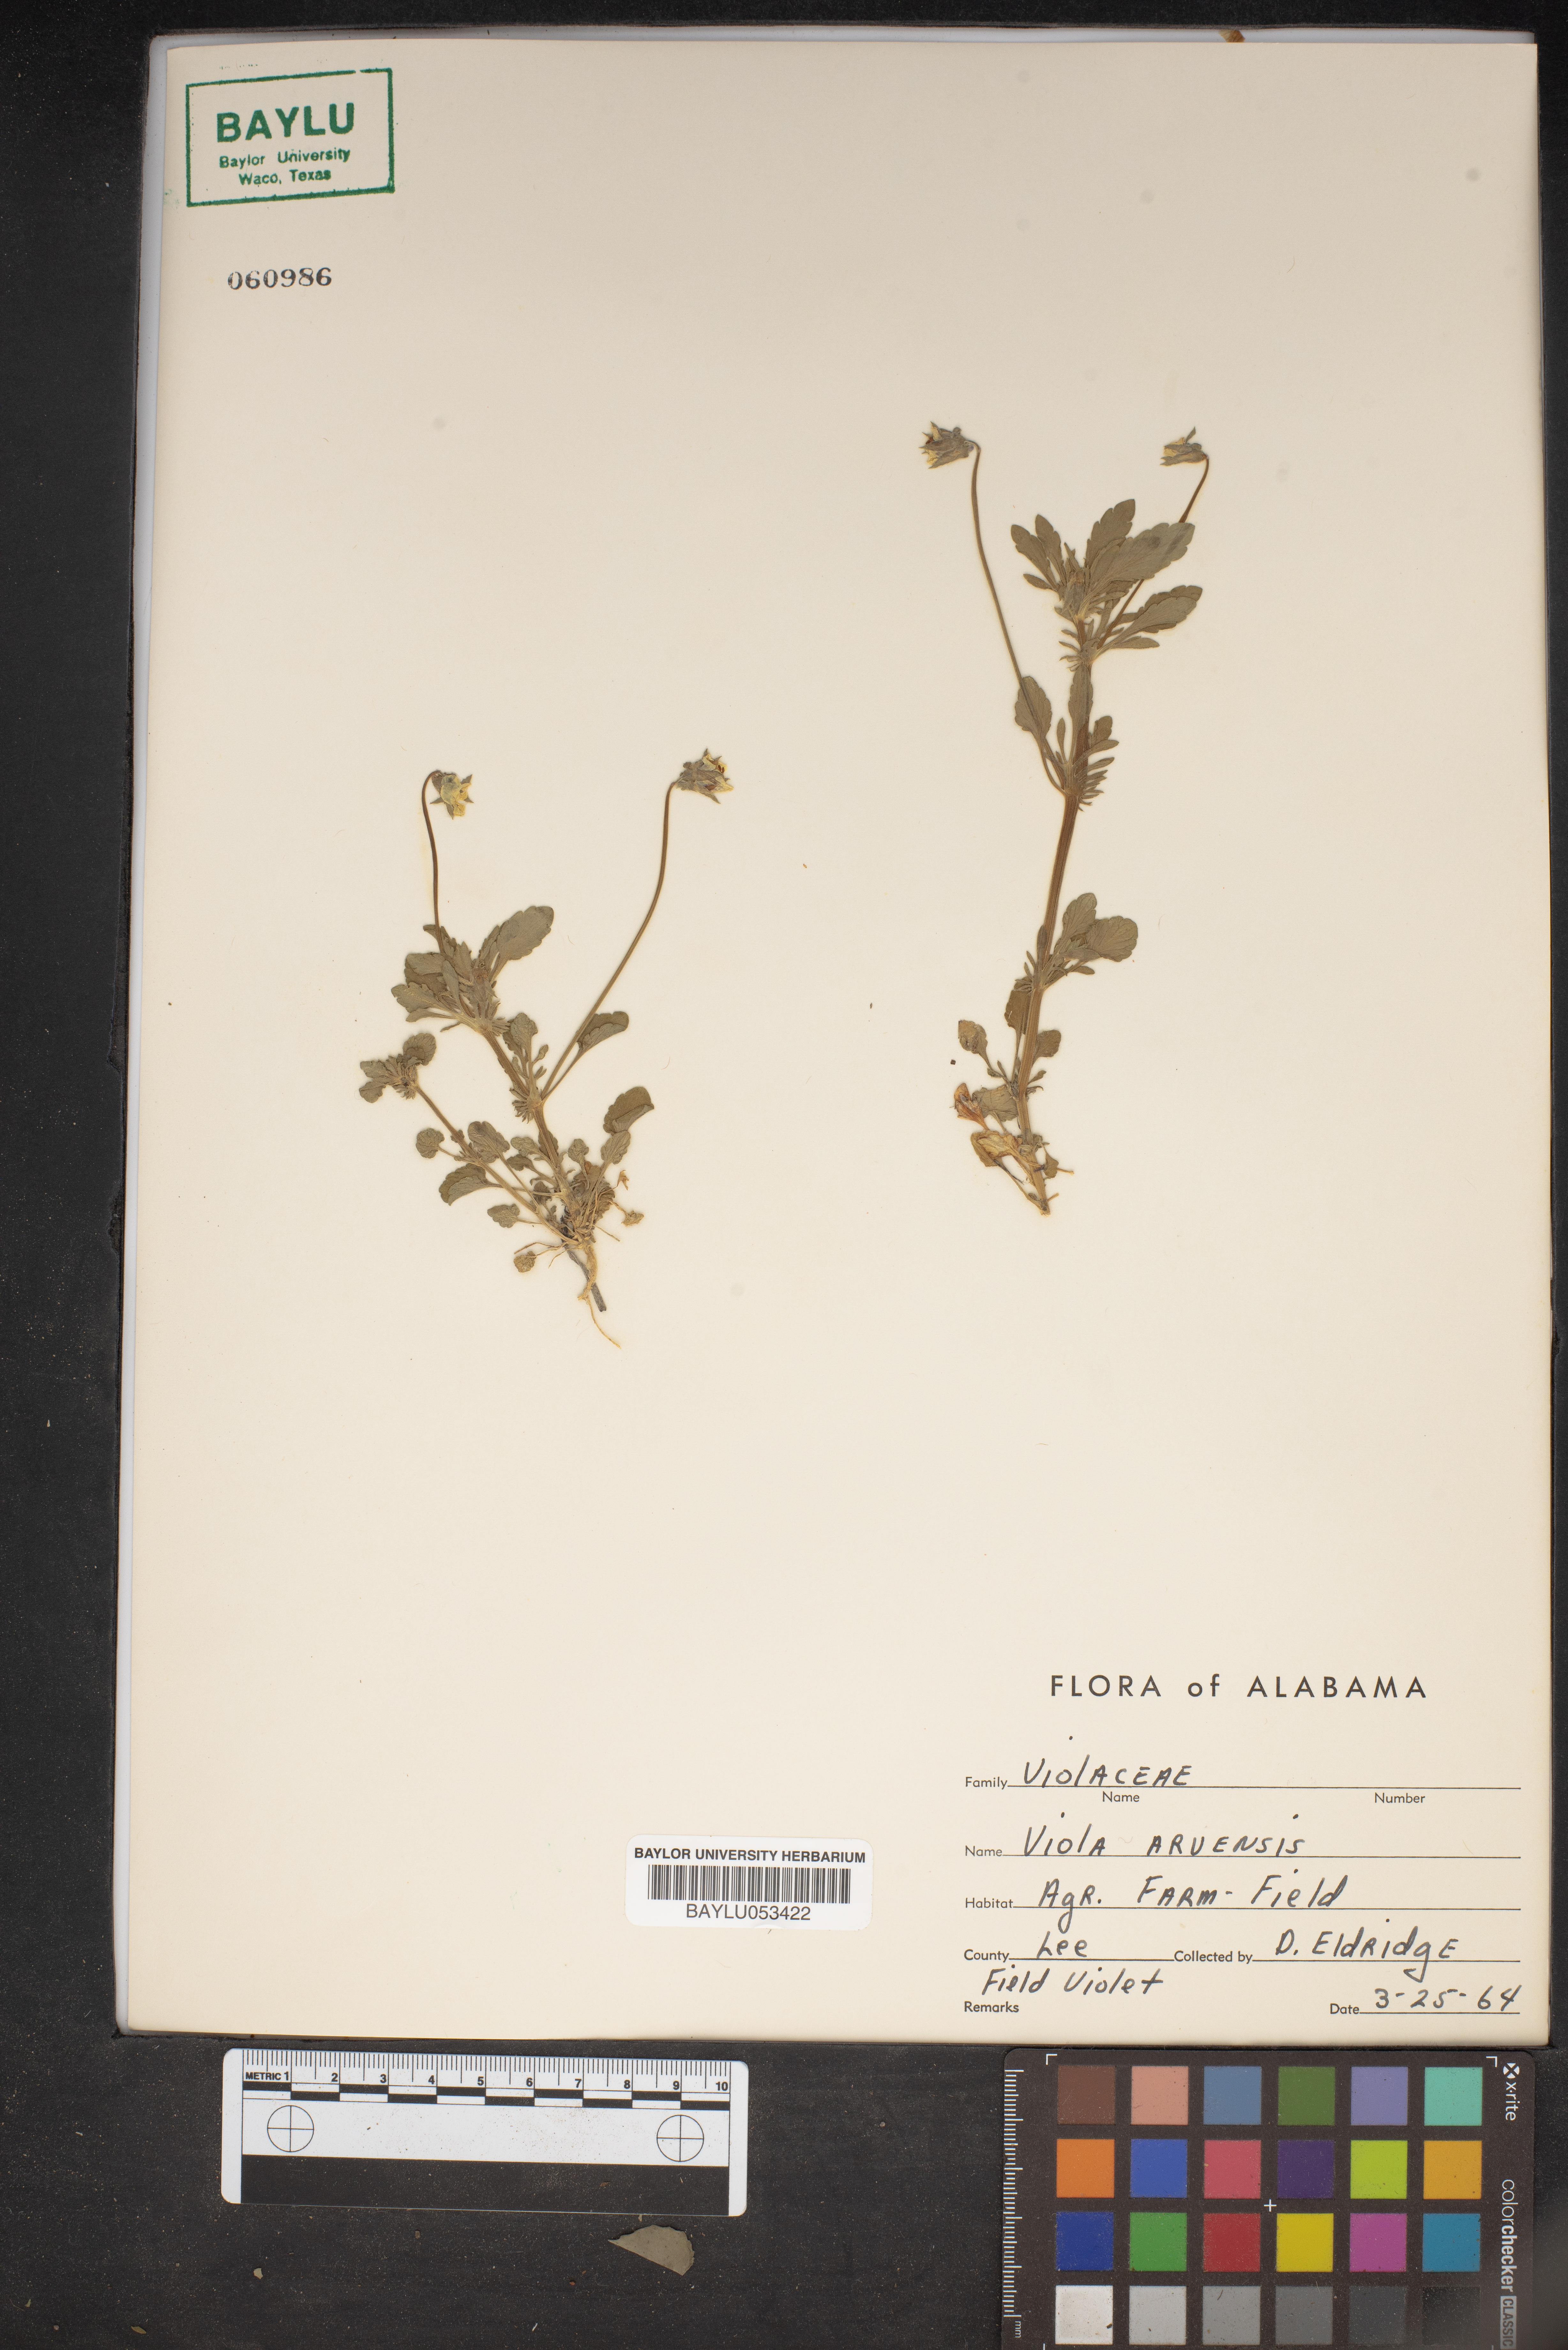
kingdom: Plantae
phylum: Tracheophyta
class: Magnoliopsida
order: Malpighiales
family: Violaceae
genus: Viola
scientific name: Viola arvensis
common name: Field pansy
